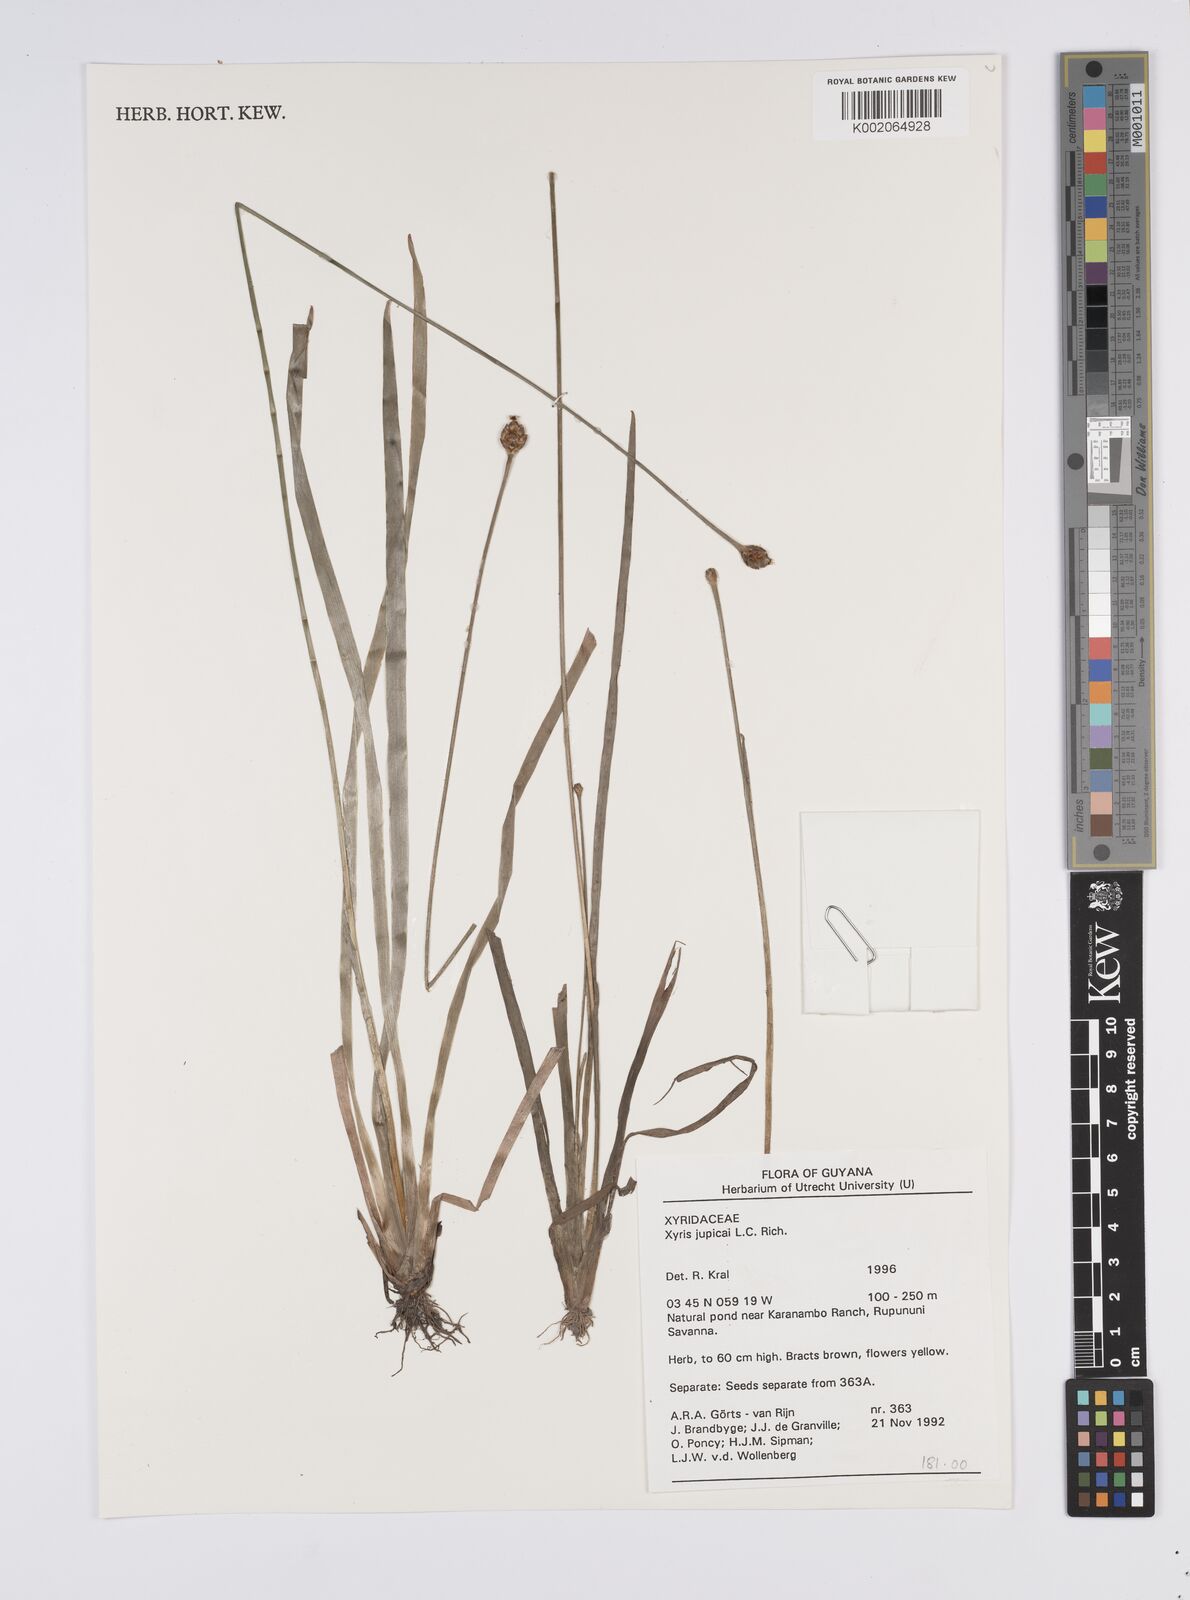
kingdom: Plantae
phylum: Tracheophyta
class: Liliopsida
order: Poales
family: Xyridaceae
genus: Xyris
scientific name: Xyris jupicai
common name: Richard's yelloweyed grass
